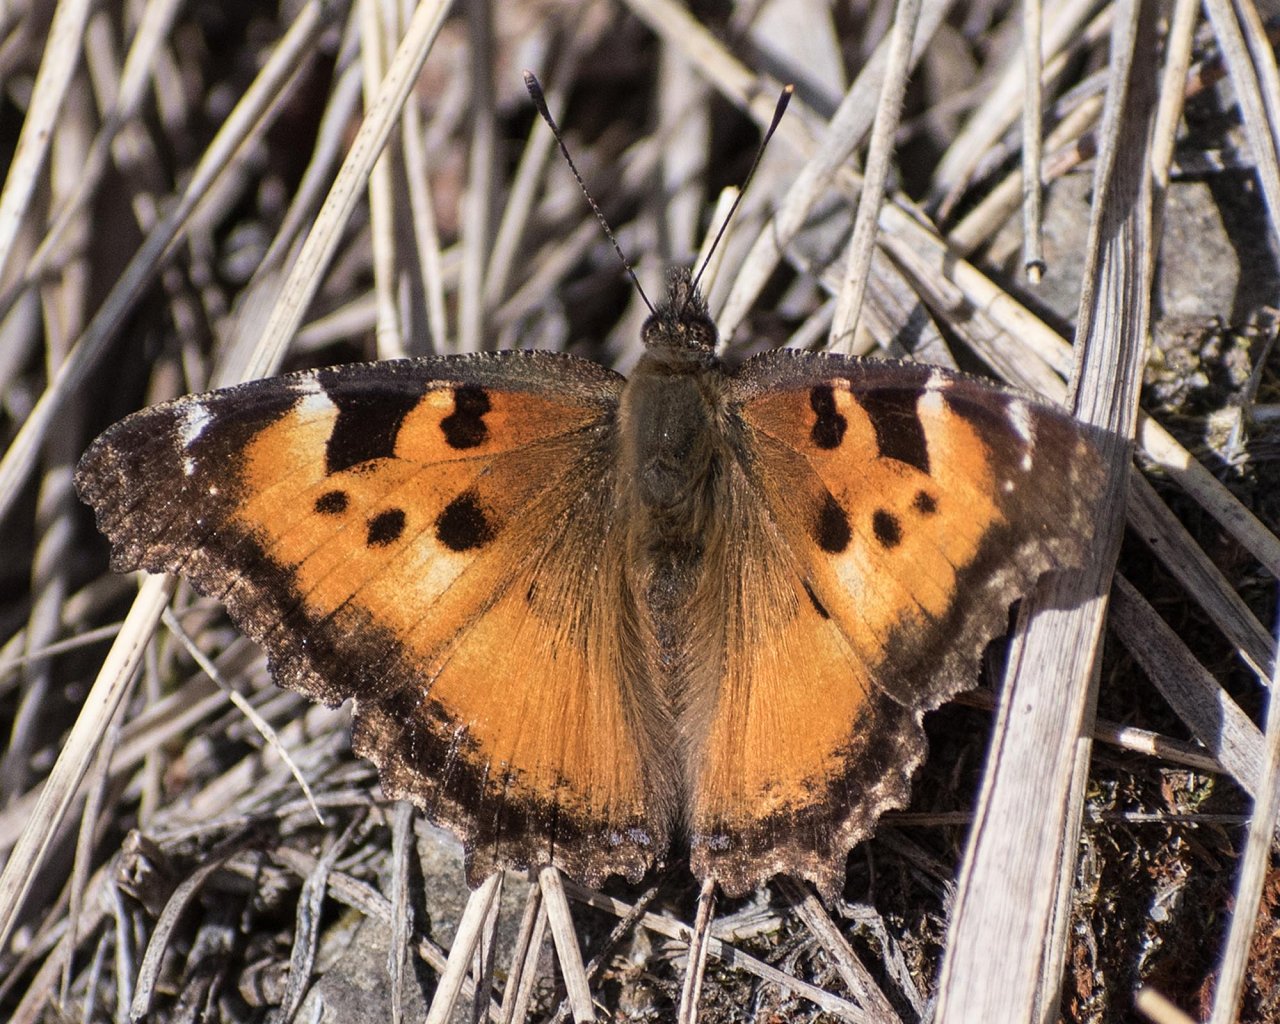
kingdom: Animalia
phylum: Arthropoda
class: Insecta
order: Lepidoptera
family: Nymphalidae
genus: Nymphalis
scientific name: Nymphalis californica
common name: California Tortoiseshell
